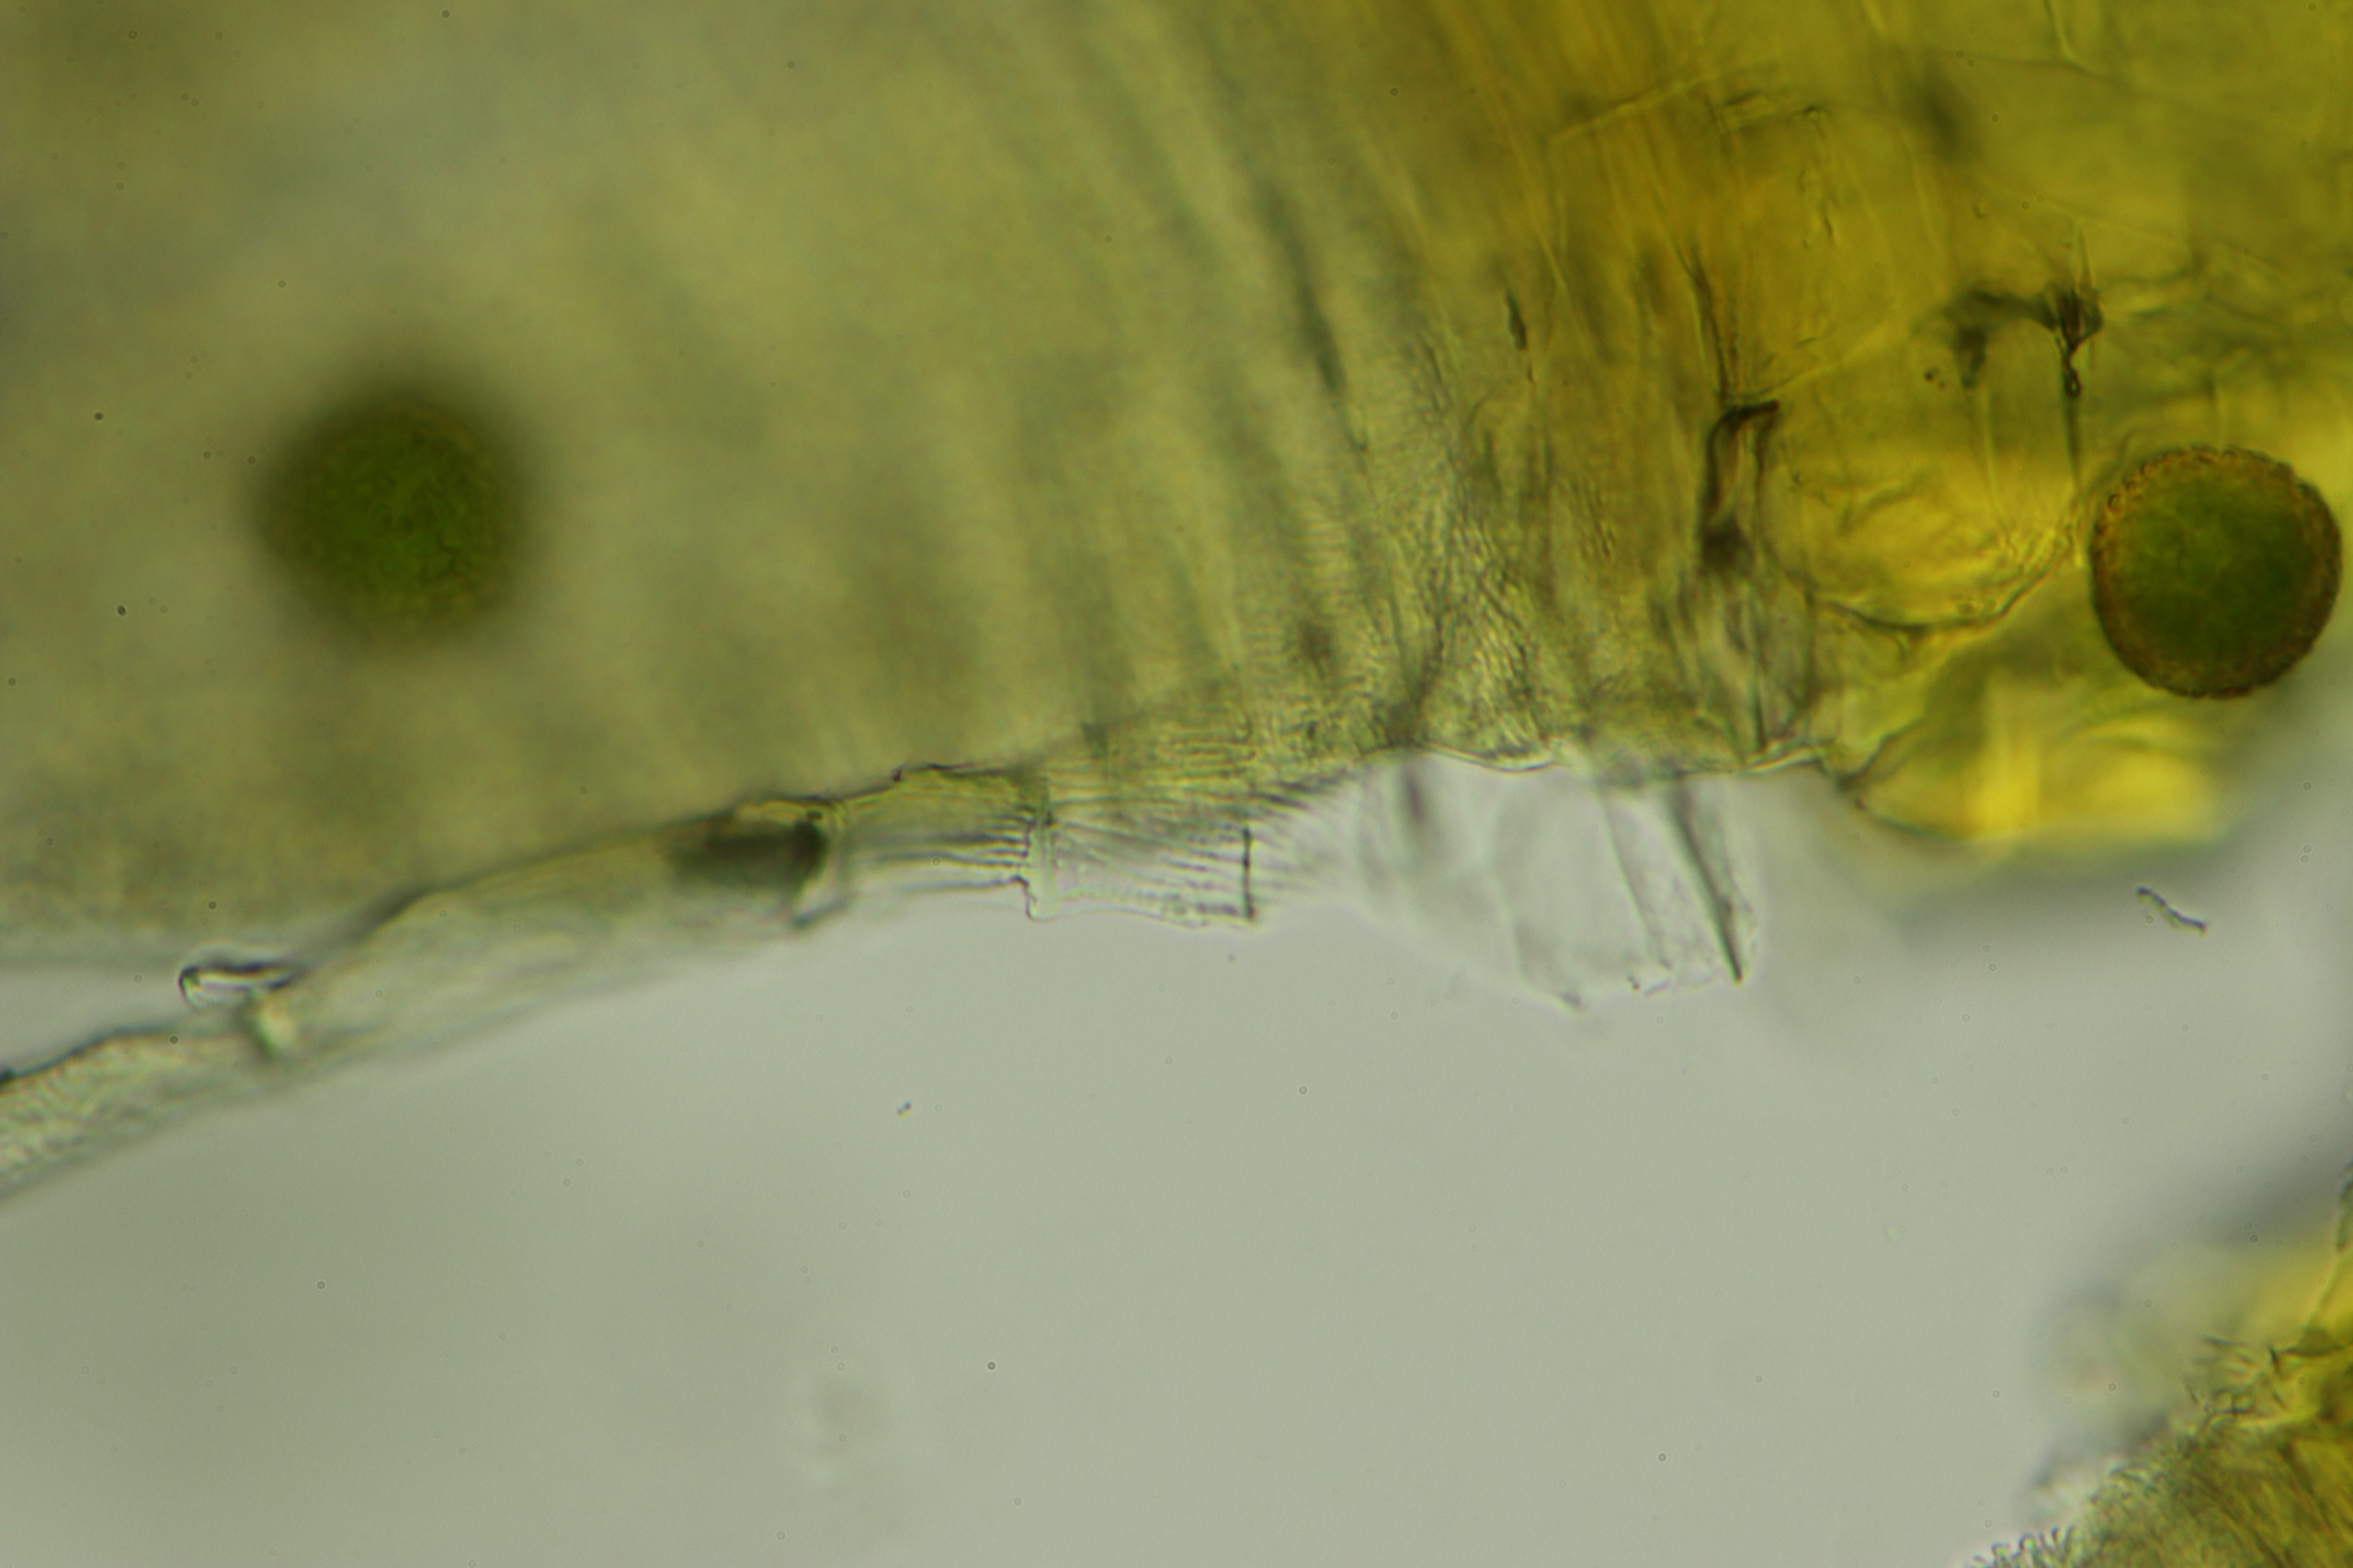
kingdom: Plantae
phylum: Bryophyta
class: Bryopsida
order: Orthotrichales
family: Orthotrichaceae
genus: Ulota
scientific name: Ulota bruchii
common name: Bruchs låddenhætte
